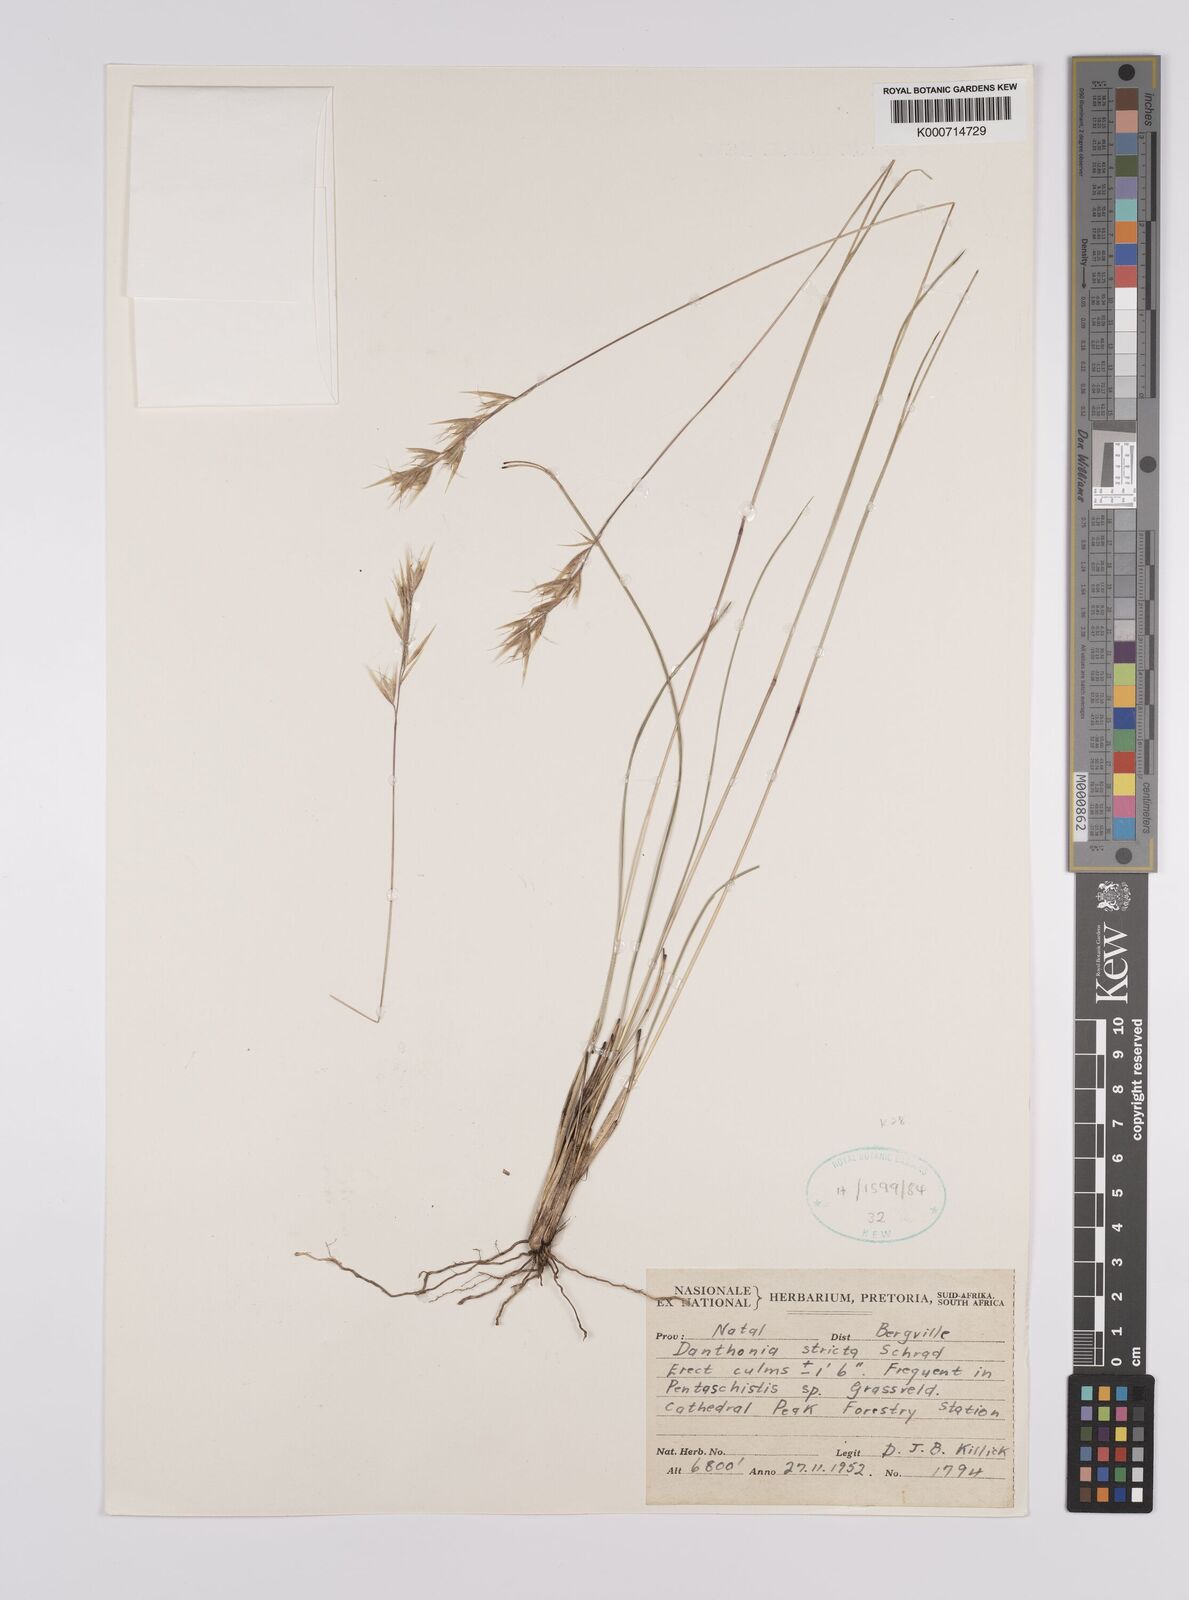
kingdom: Plantae
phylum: Tracheophyta
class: Liliopsida
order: Poales
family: Poaceae
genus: Rytidosperma
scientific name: Rytidosperma
